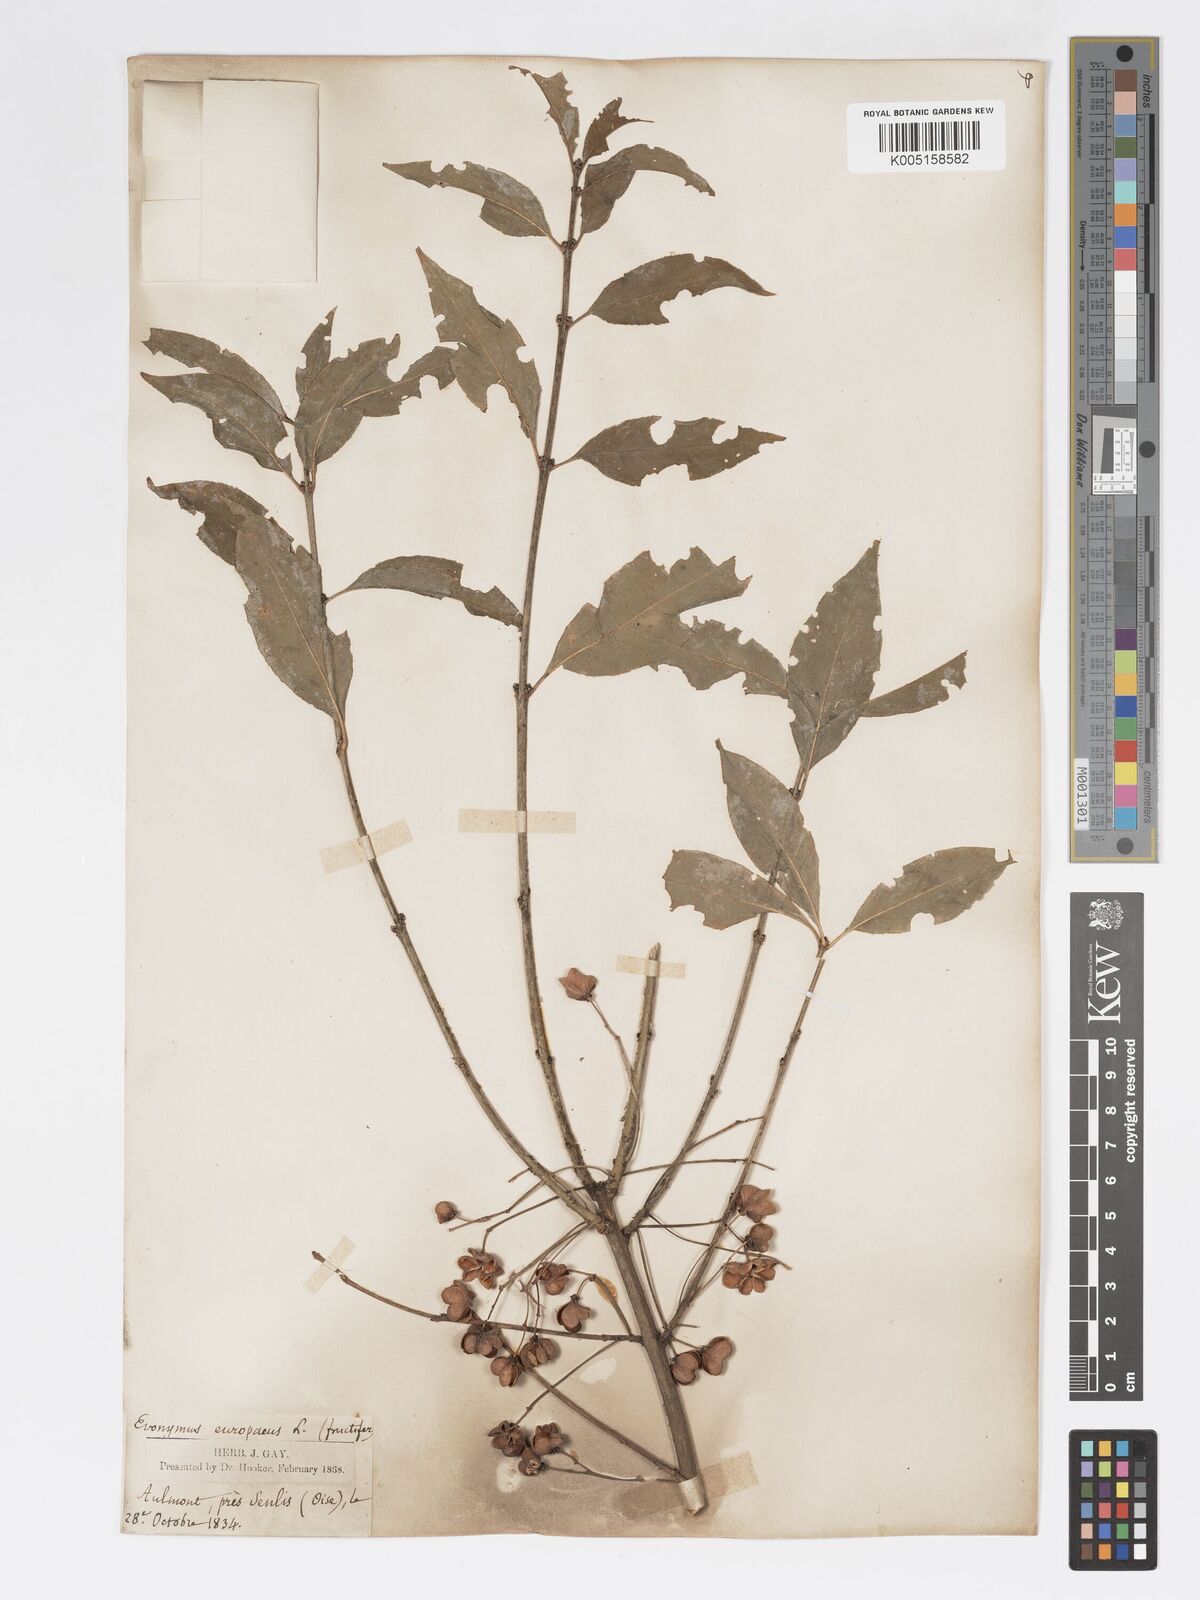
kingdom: Plantae
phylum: Tracheophyta
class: Magnoliopsida
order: Celastrales
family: Celastraceae
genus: Euonymus
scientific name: Euonymus europaeus
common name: Spindle
